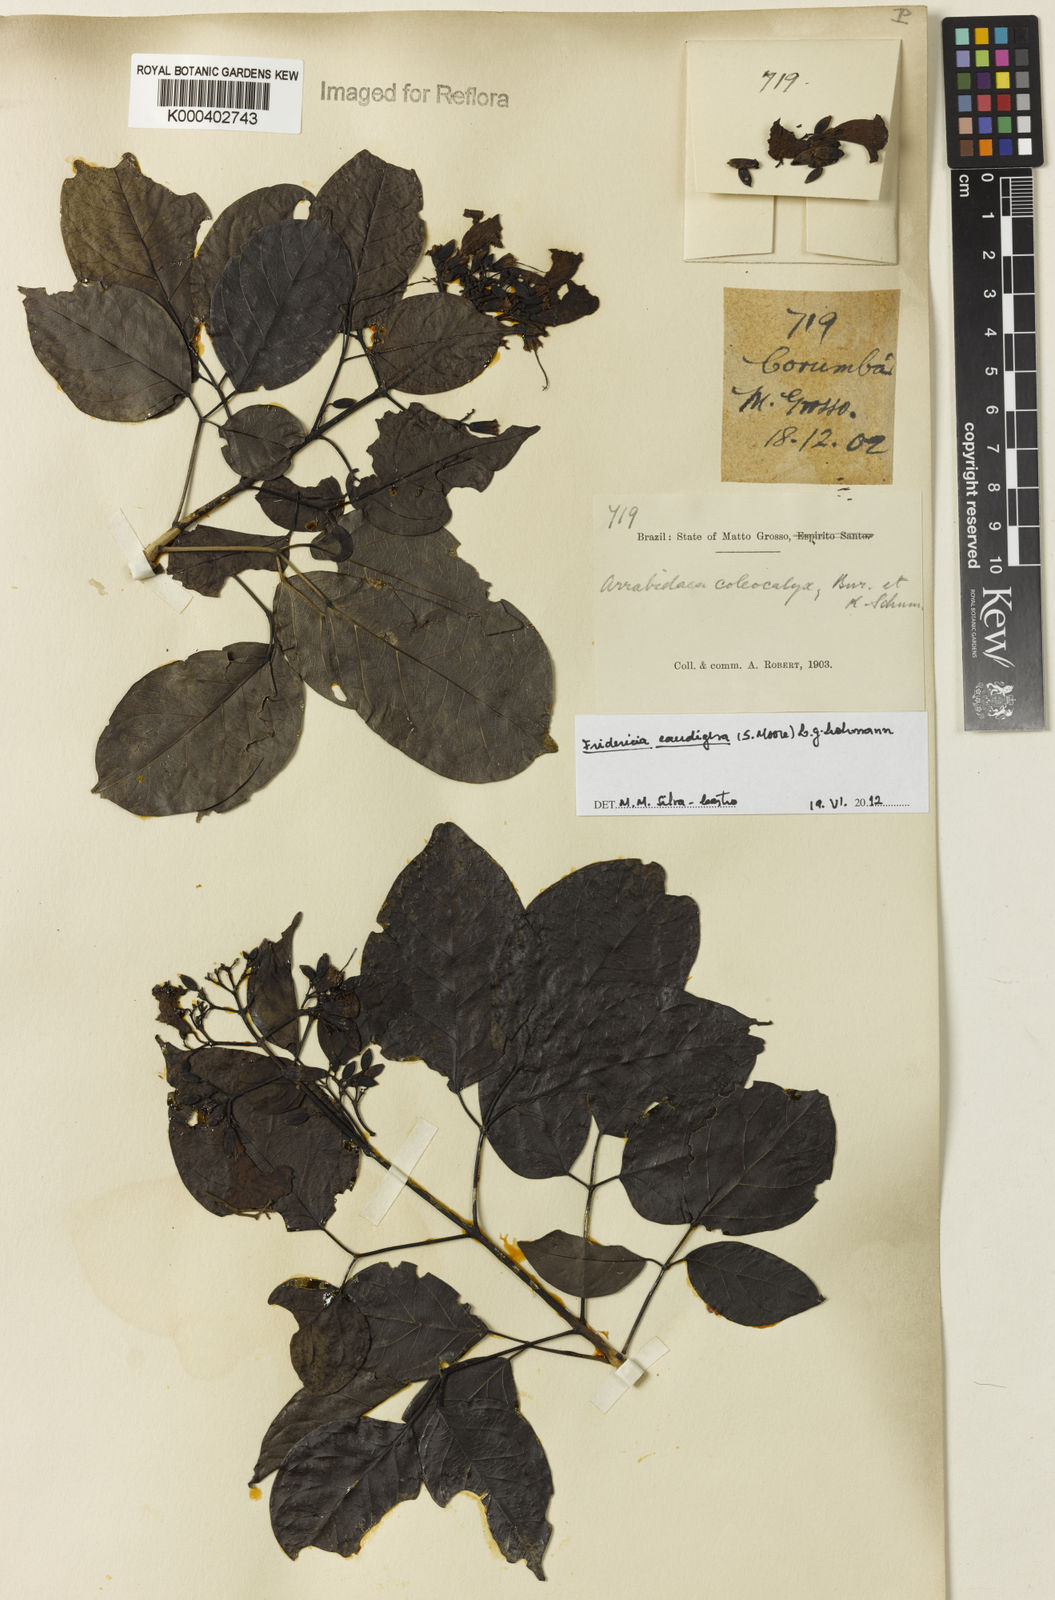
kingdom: Plantae
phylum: Tracheophyta
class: Magnoliopsida
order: Lamiales
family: Bignoniaceae
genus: Fridericia
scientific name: Fridericia caudigera
